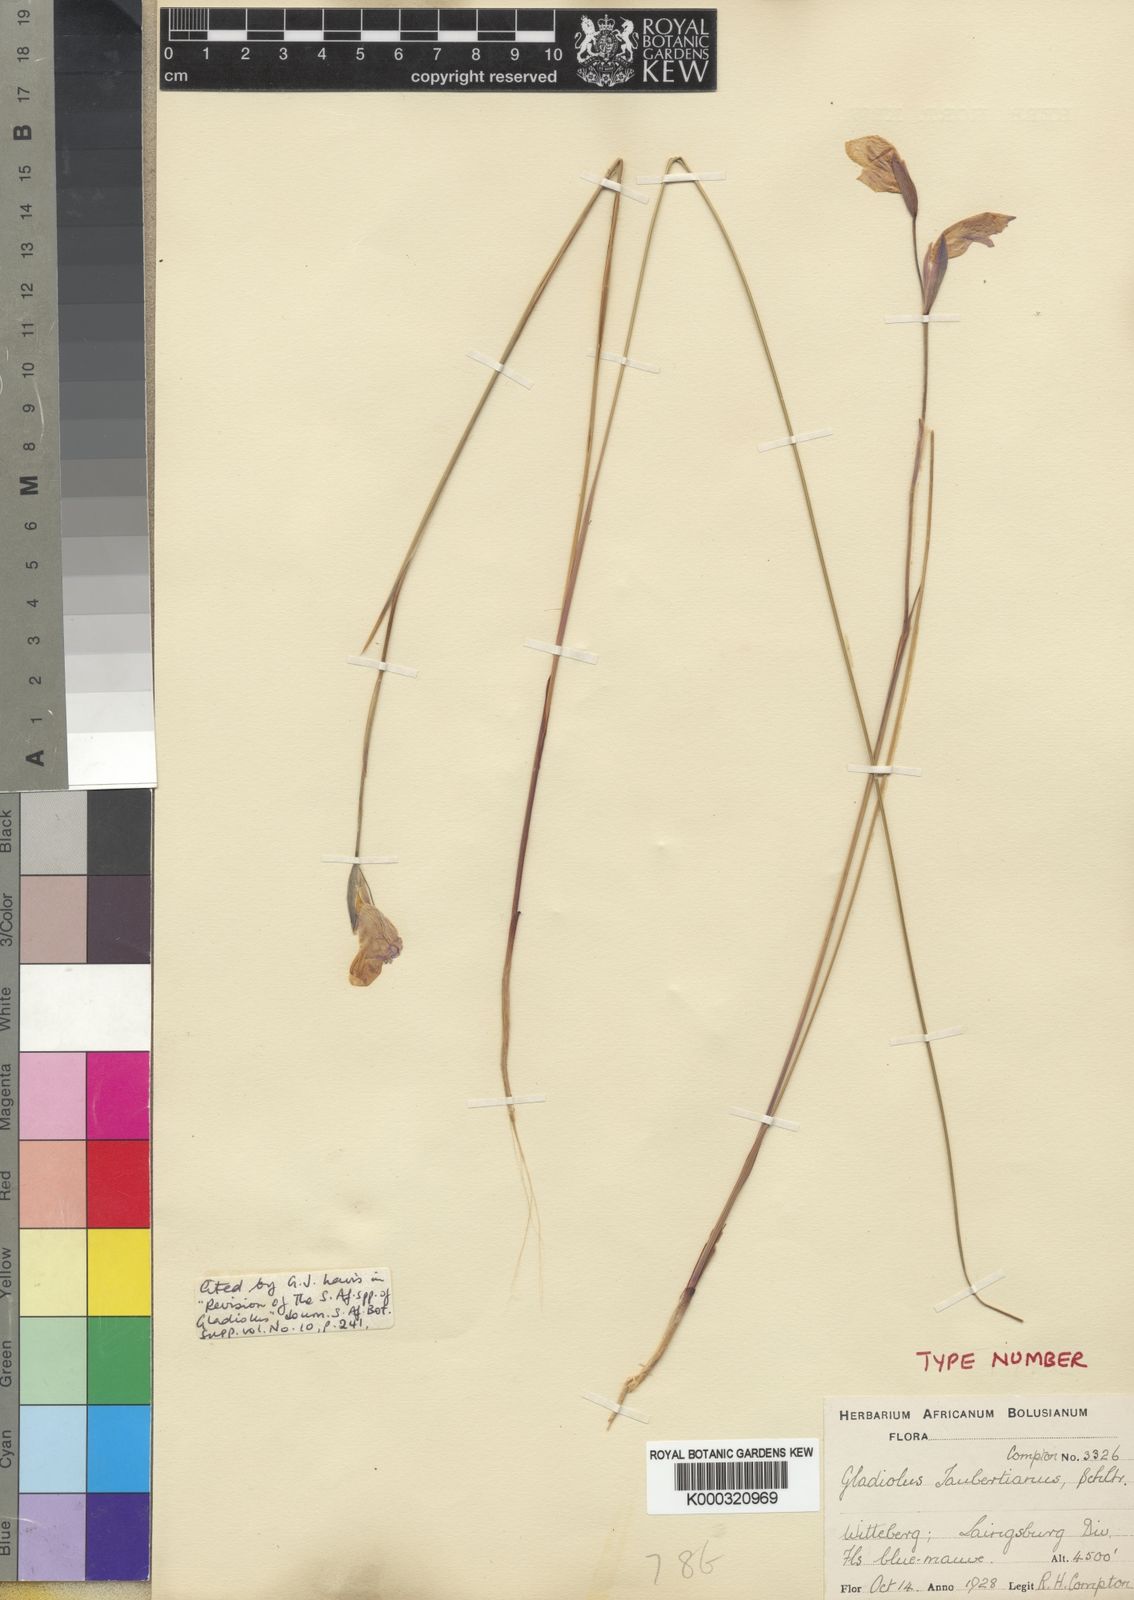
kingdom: Plantae
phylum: Tracheophyta
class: Liliopsida
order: Asparagales
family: Iridaceae
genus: Gladiolus
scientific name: Gladiolus patersoniae
